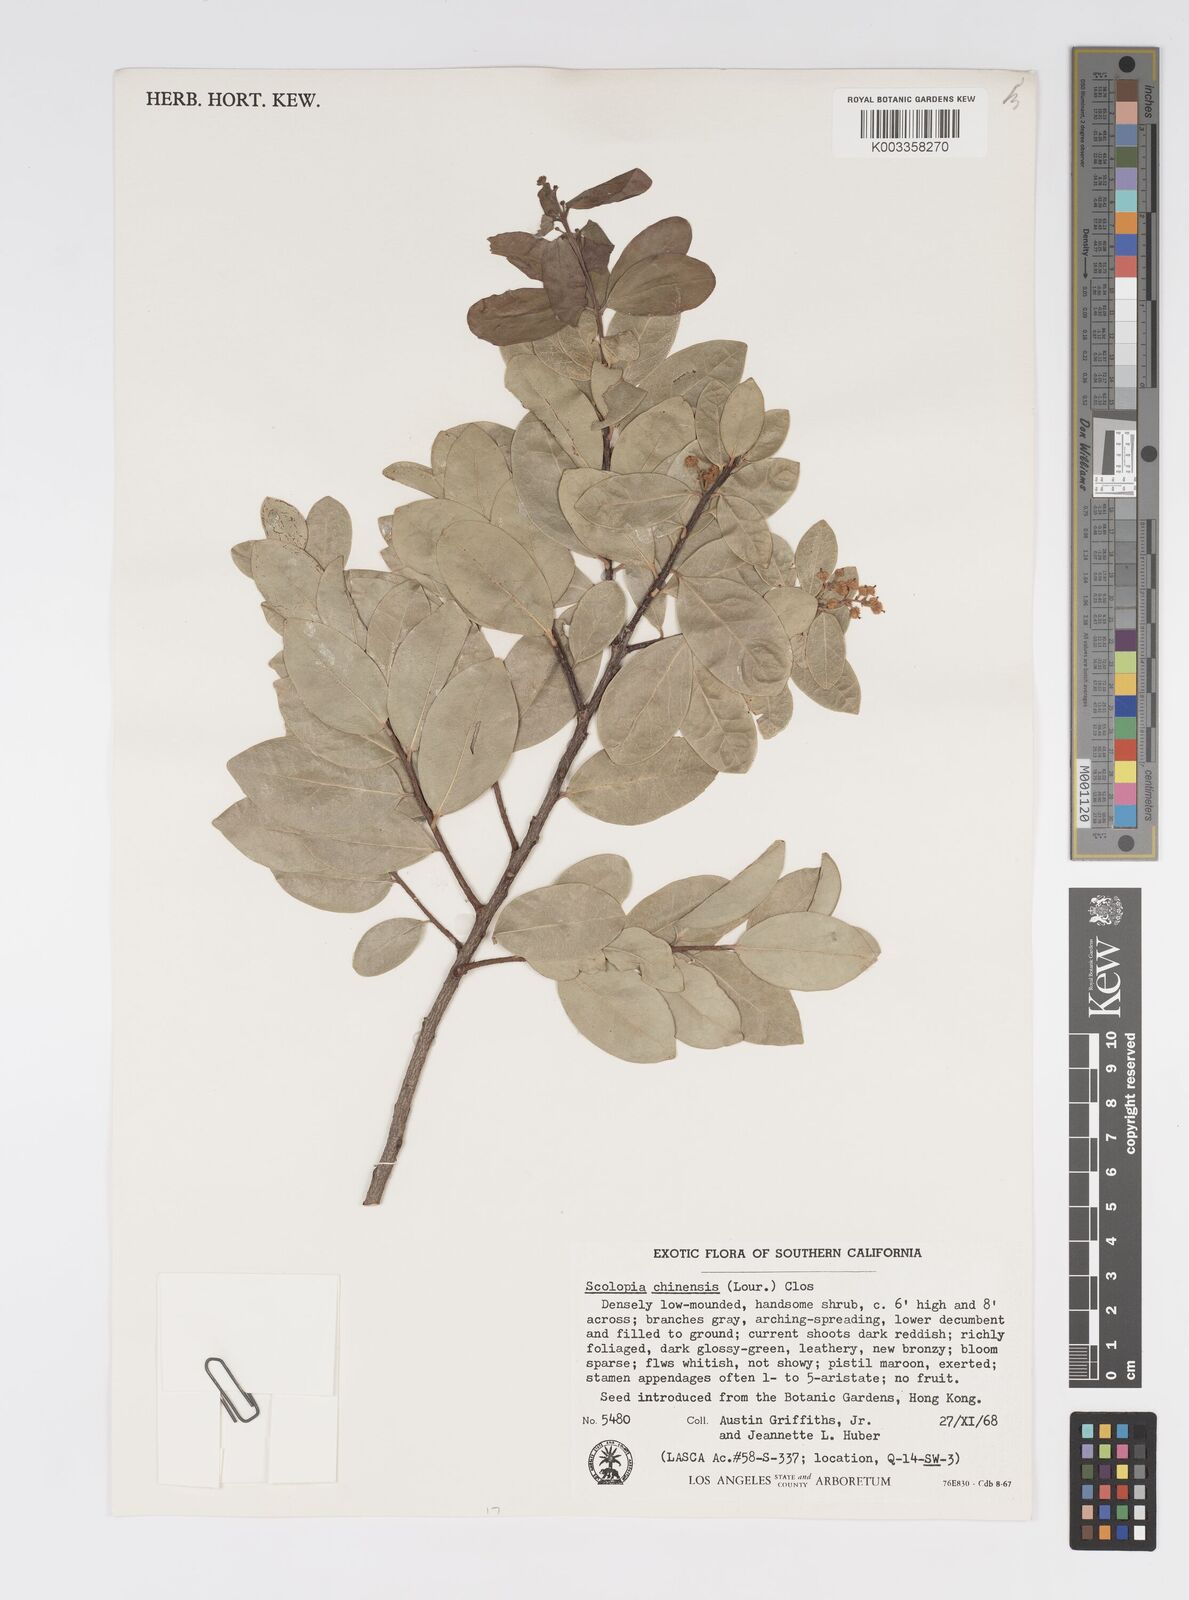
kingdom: Plantae
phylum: Tracheophyta
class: Magnoliopsida
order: Malpighiales
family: Salicaceae
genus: Scolopia
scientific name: Scolopia chinensis
